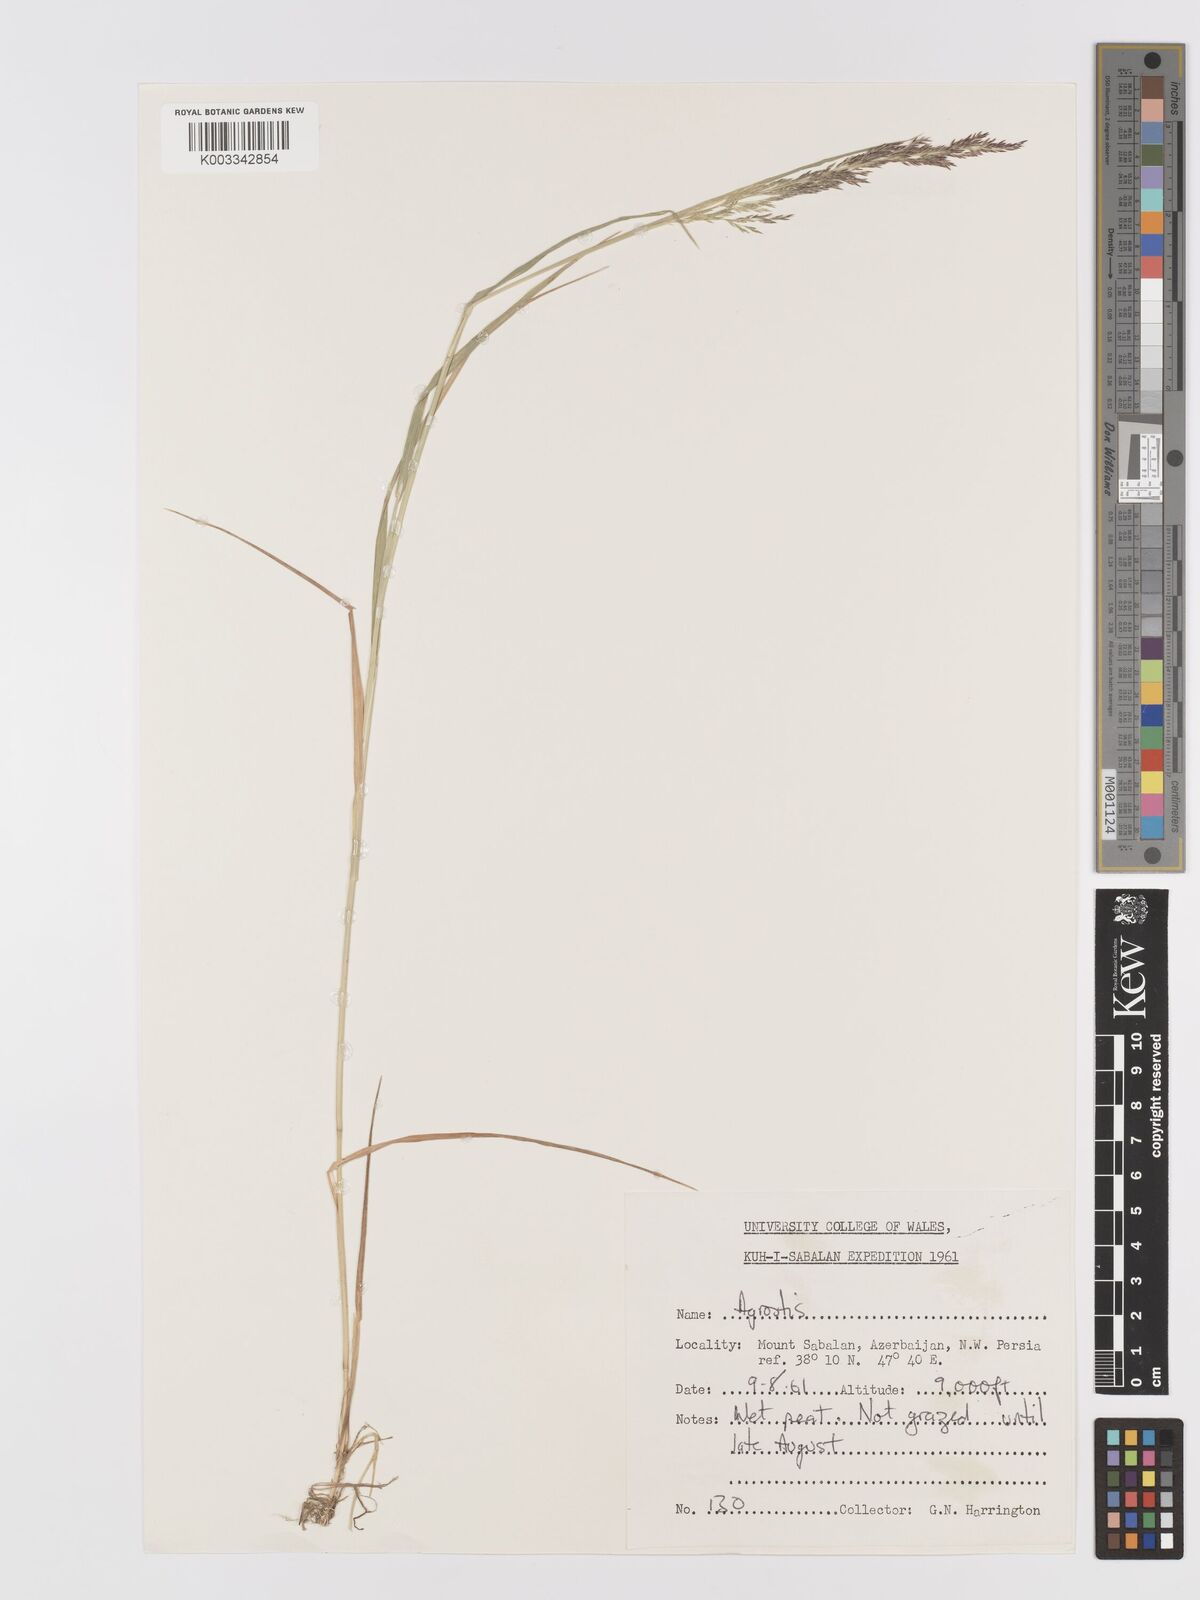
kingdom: Plantae
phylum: Tracheophyta
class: Liliopsida
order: Poales
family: Poaceae
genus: Agrostis
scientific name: Agrostis
